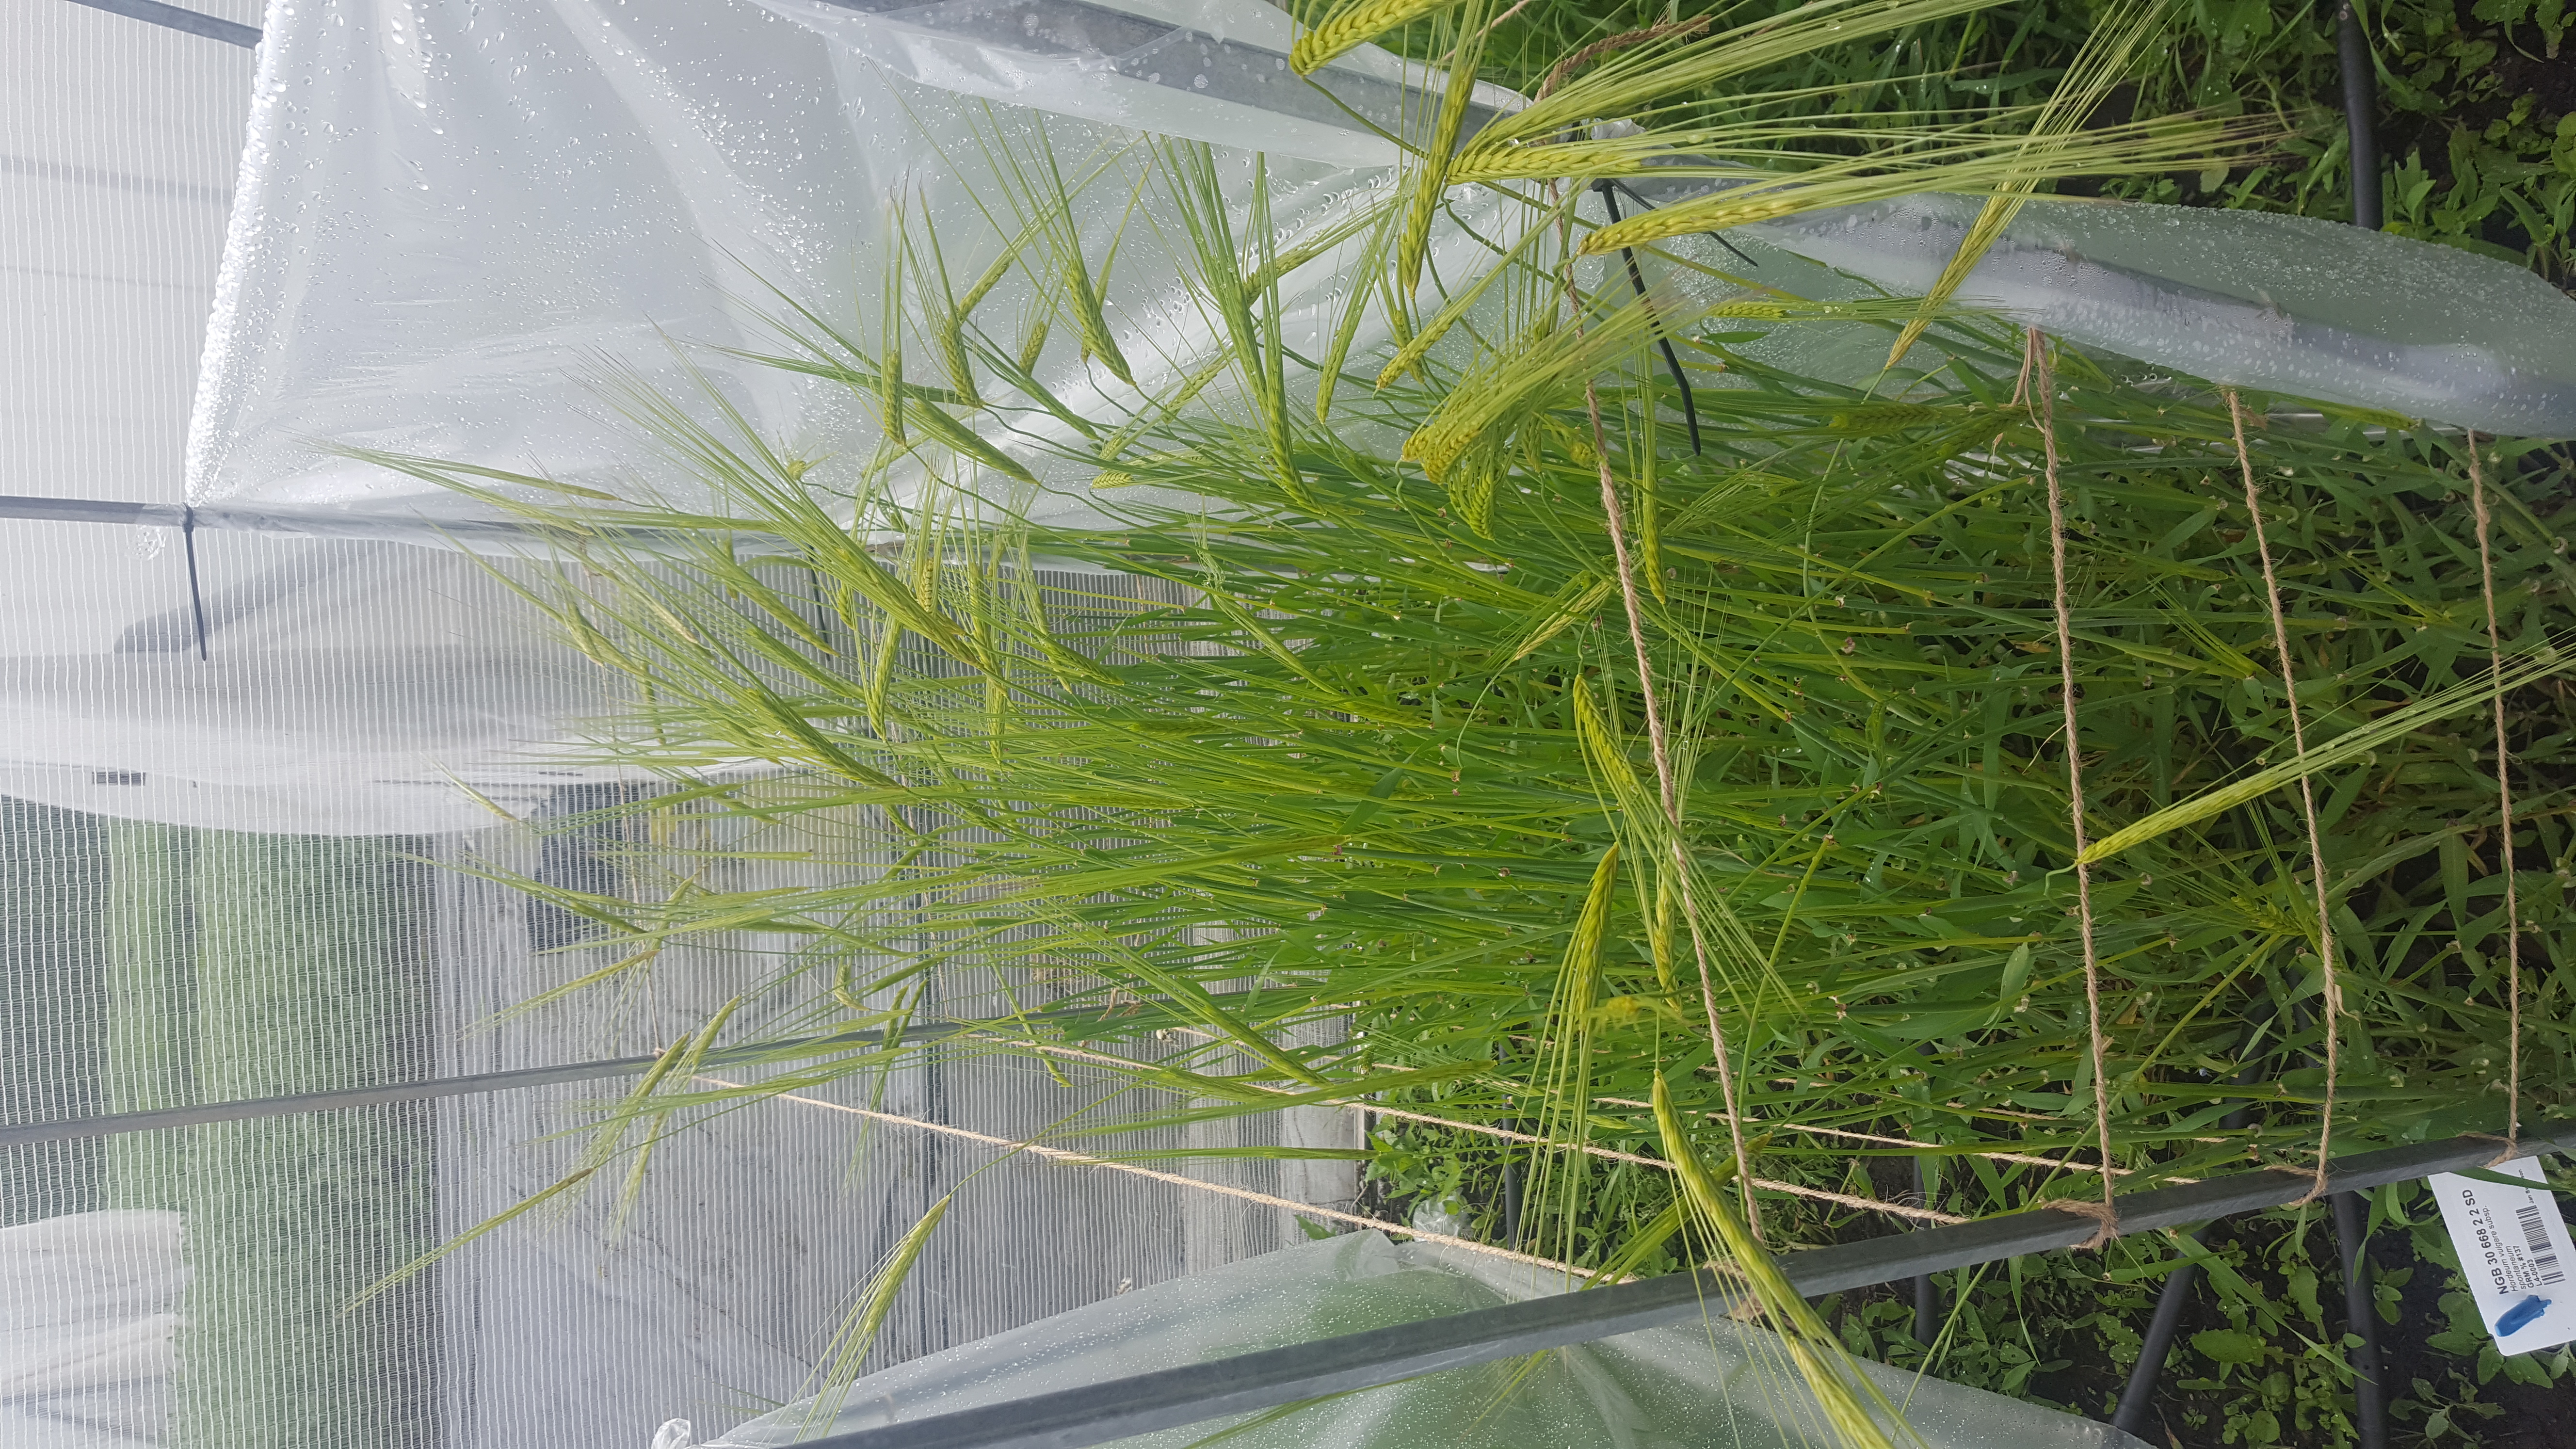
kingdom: Plantae
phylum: Tracheophyta
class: Liliopsida
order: Poales
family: Poaceae
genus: Hordeum
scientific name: Hordeum spontaneum
